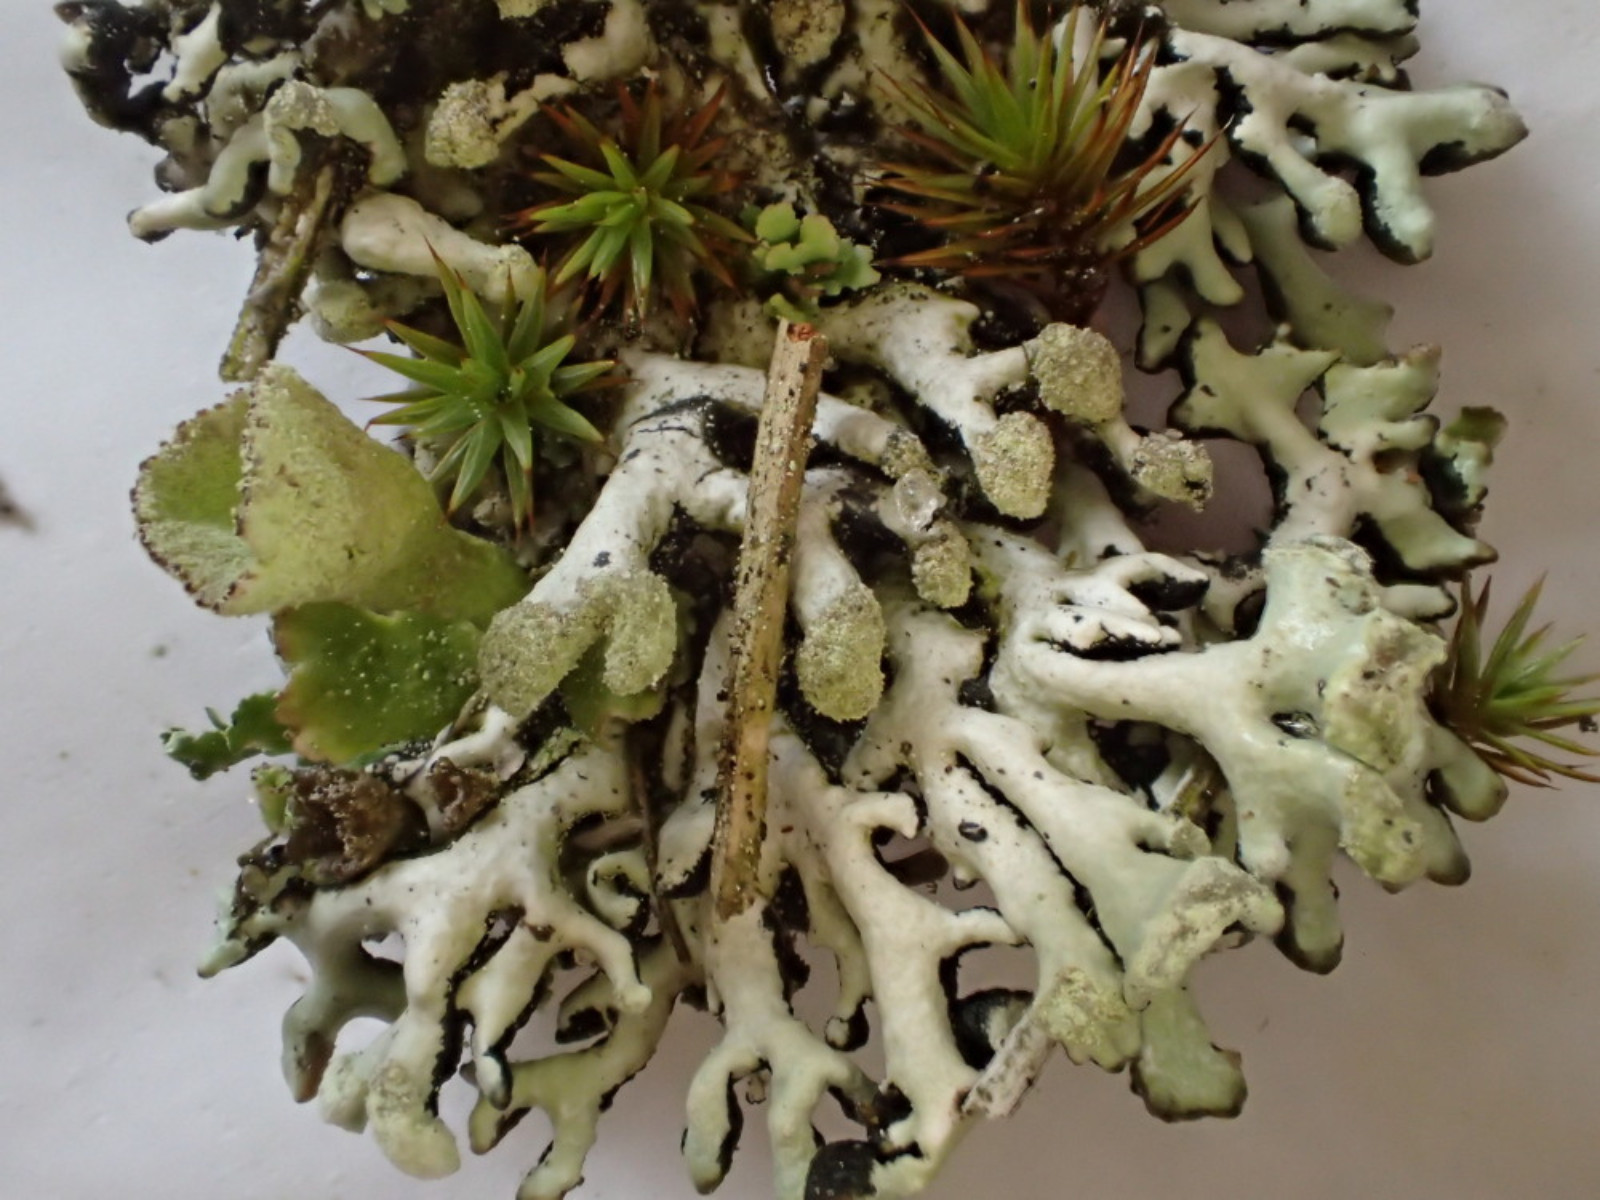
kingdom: Fungi
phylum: Ascomycota
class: Lecanoromycetes
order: Lecanorales
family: Parmeliaceae
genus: Hypogymnia
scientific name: Hypogymnia tubulosa
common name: finger-kvistlav
